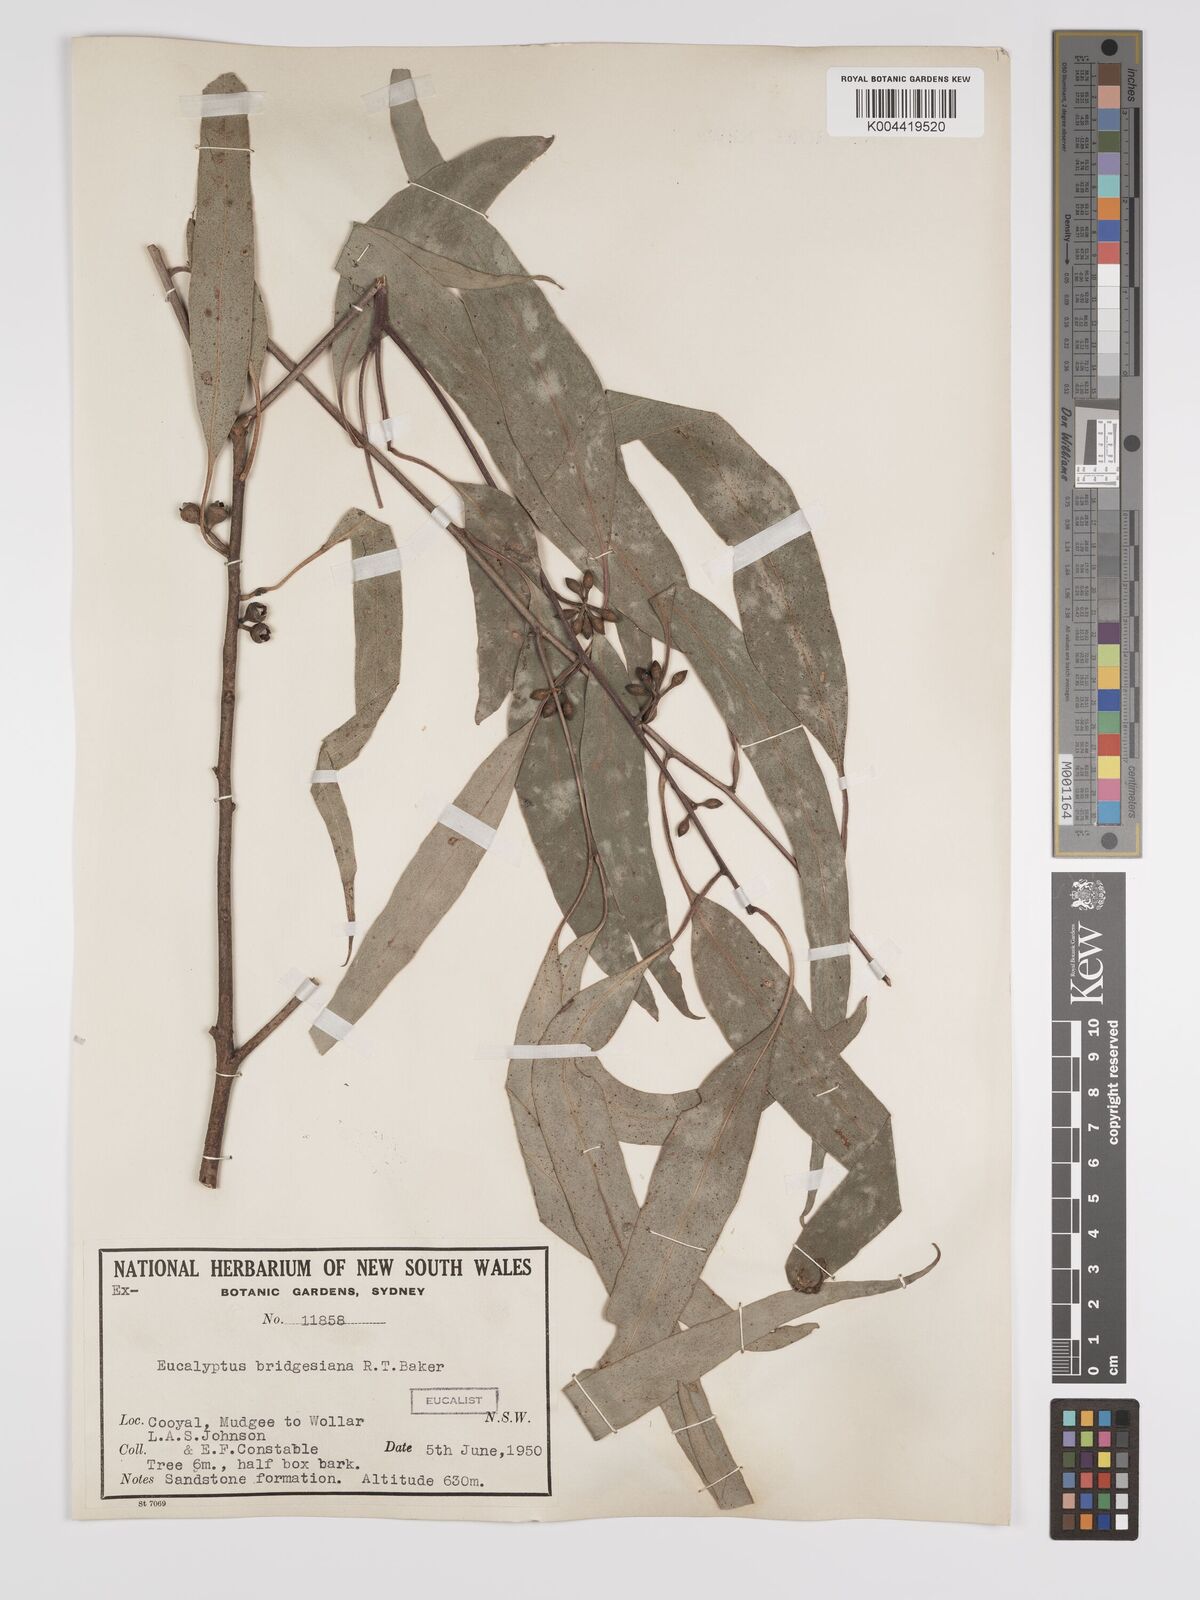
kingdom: Plantae
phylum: Tracheophyta
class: Magnoliopsida
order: Myrtales
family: Myrtaceae
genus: Eucalyptus
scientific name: Eucalyptus bridgesiana
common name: Applebox
